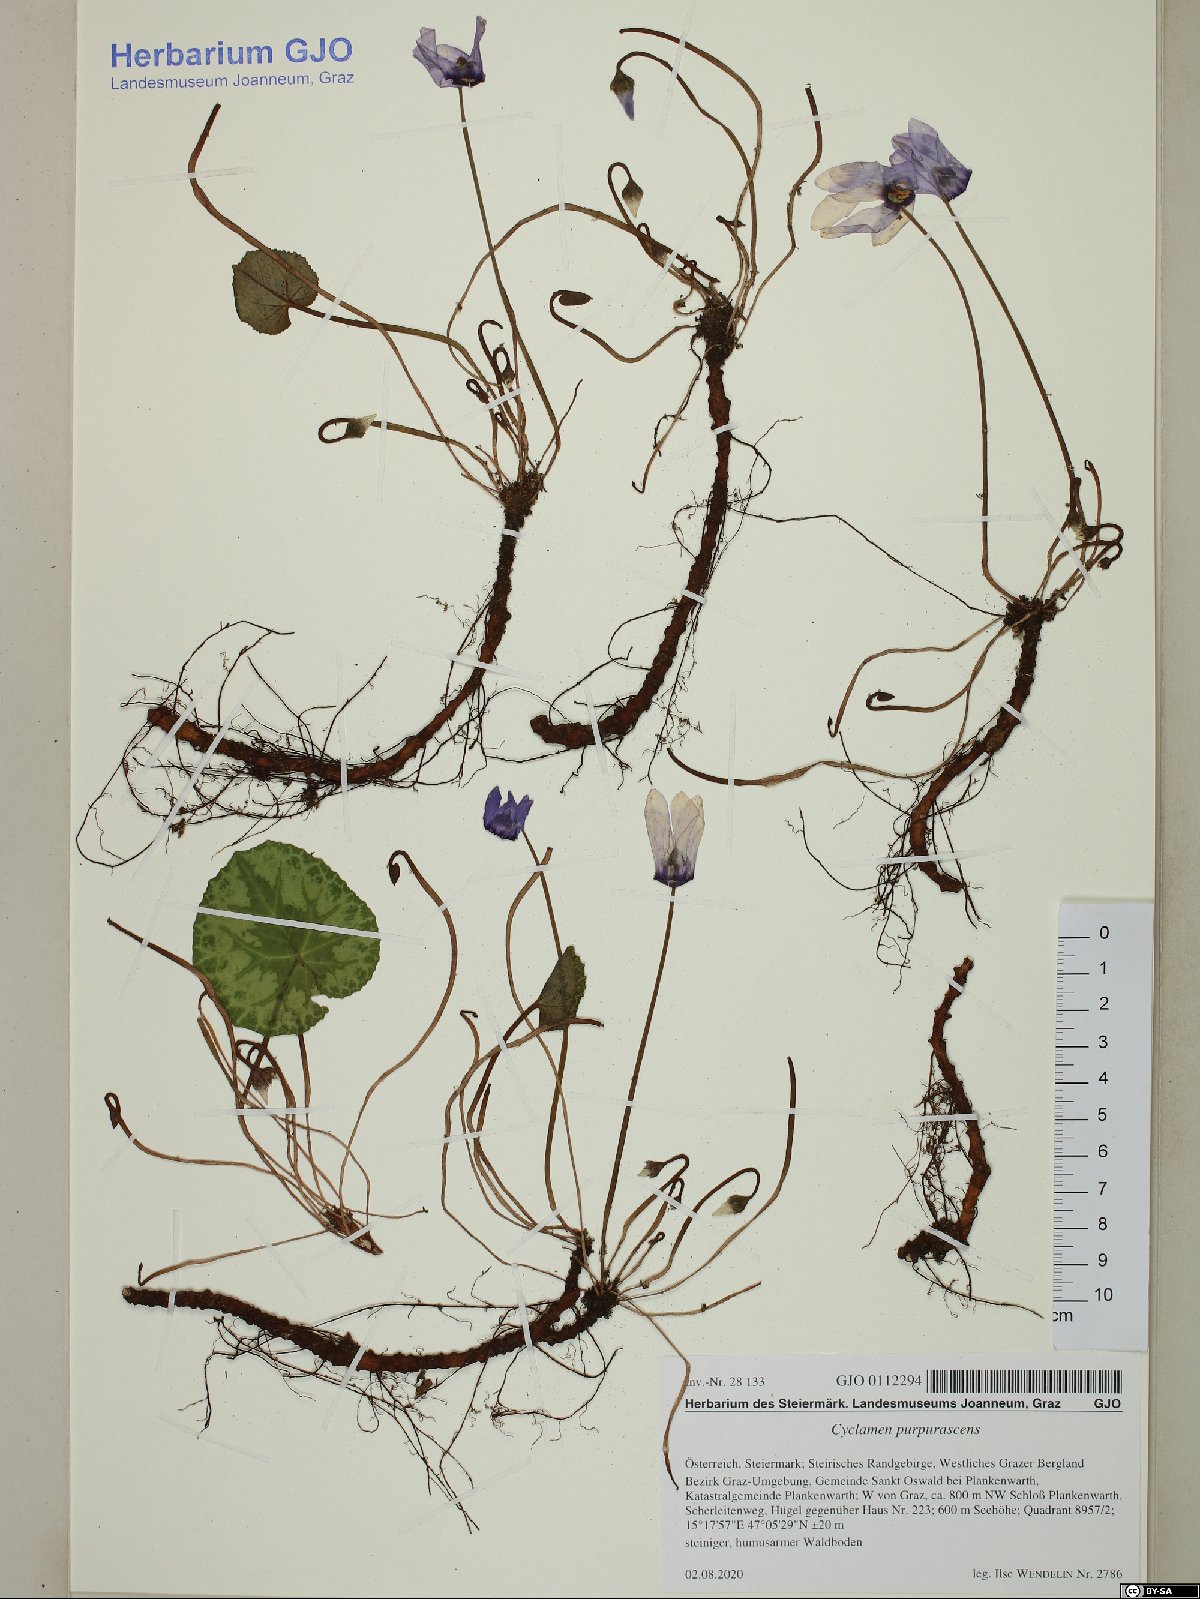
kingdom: Plantae
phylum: Tracheophyta
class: Magnoliopsida
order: Ericales
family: Primulaceae
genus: Cyclamen
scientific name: Cyclamen purpurascens
